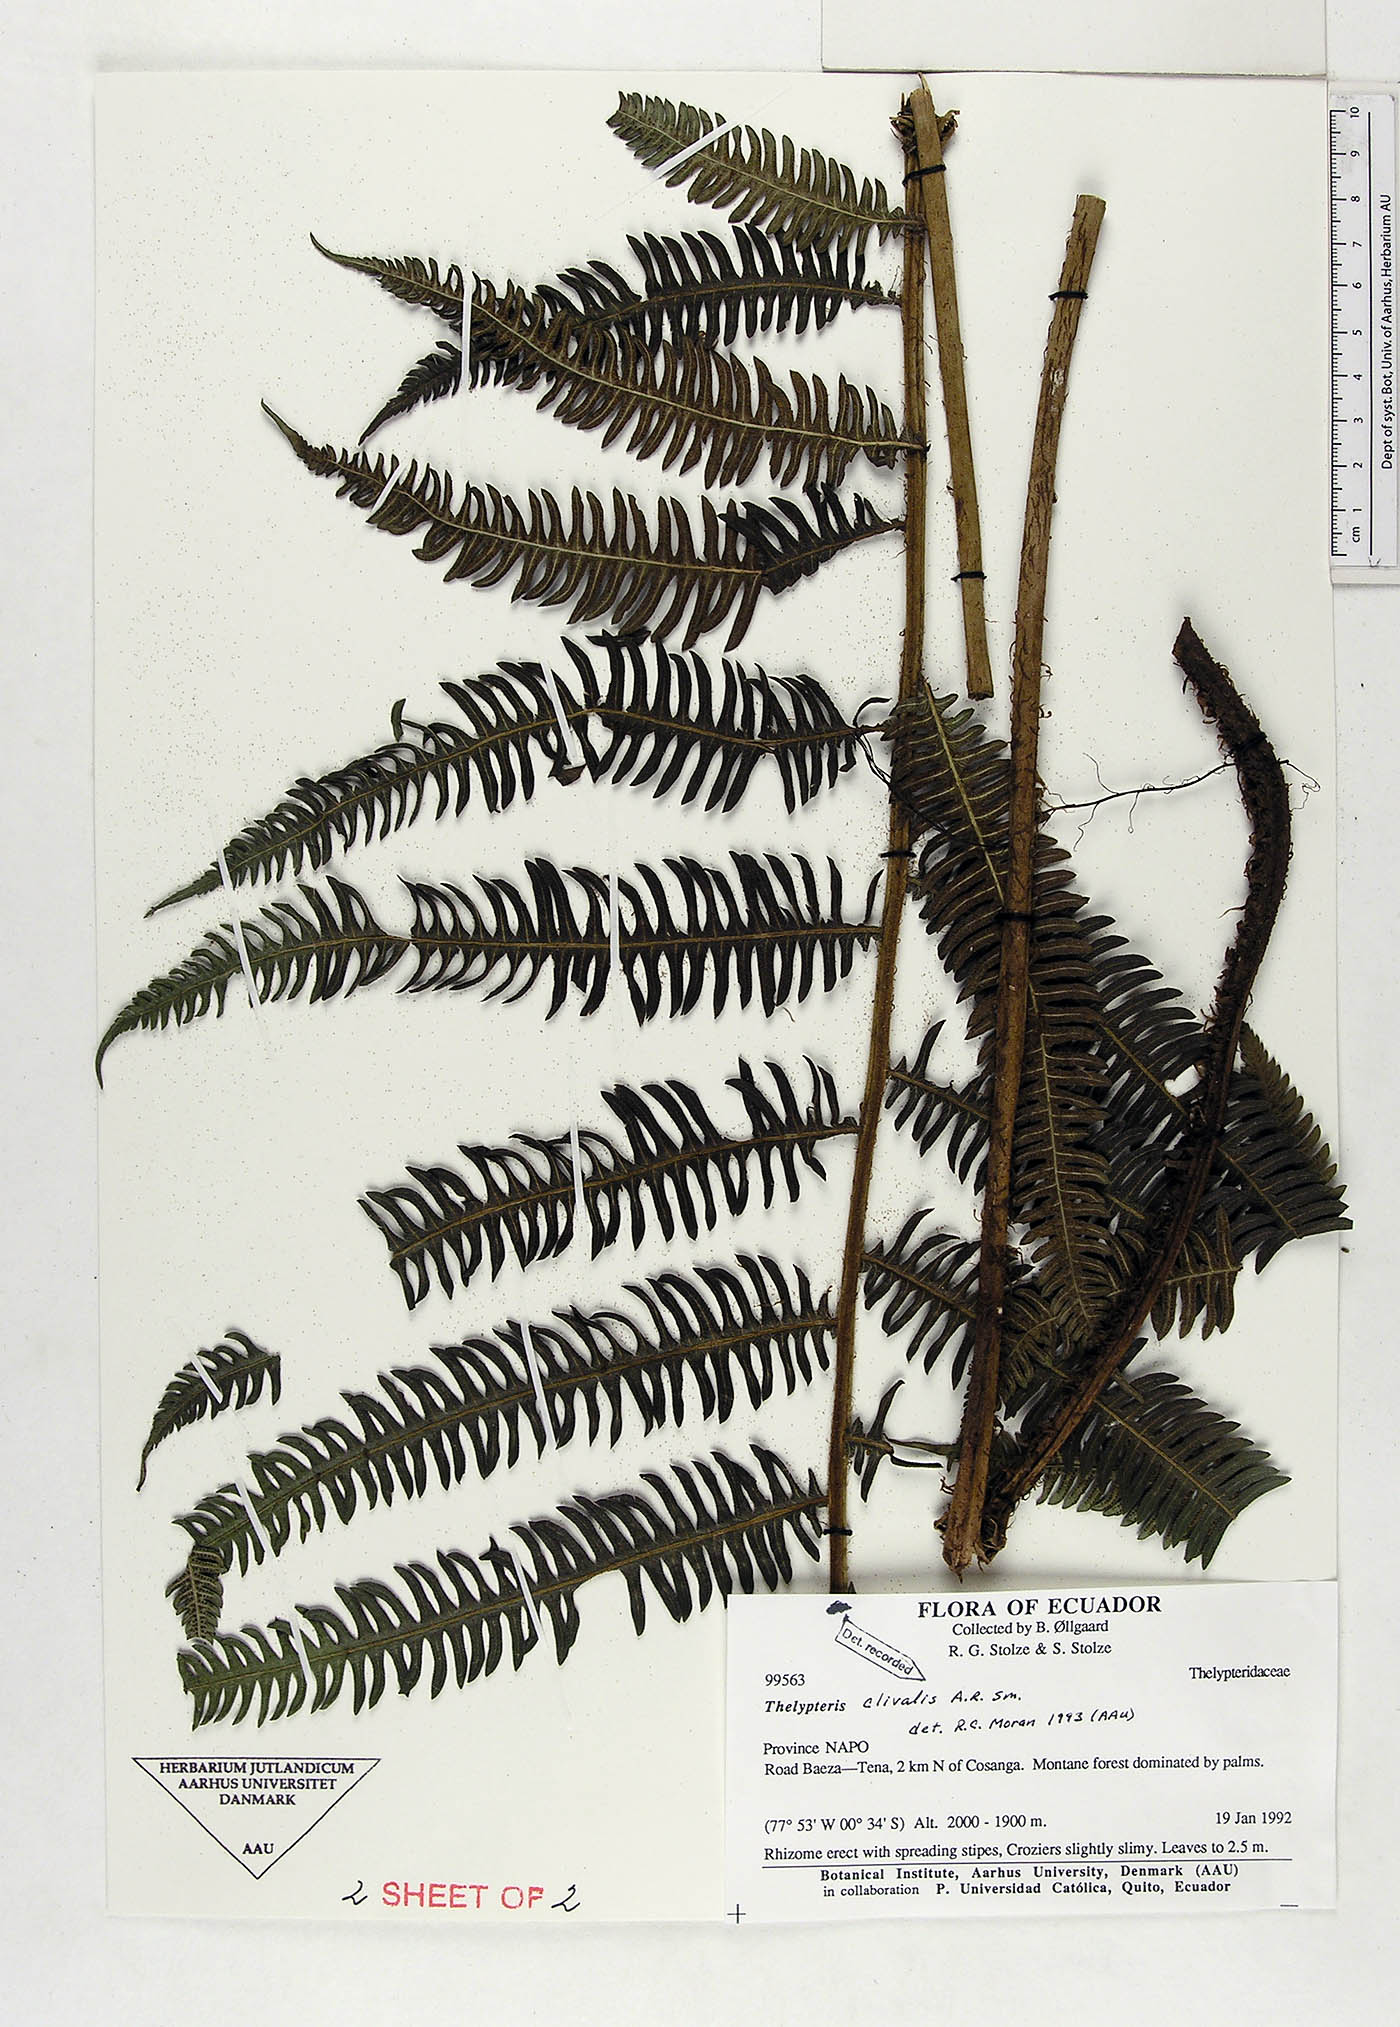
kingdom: Plantae
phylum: Tracheophyta
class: Polypodiopsida
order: Polypodiales
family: Thelypteridaceae
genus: Pelazoneuron
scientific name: Pelazoneuron clivale
